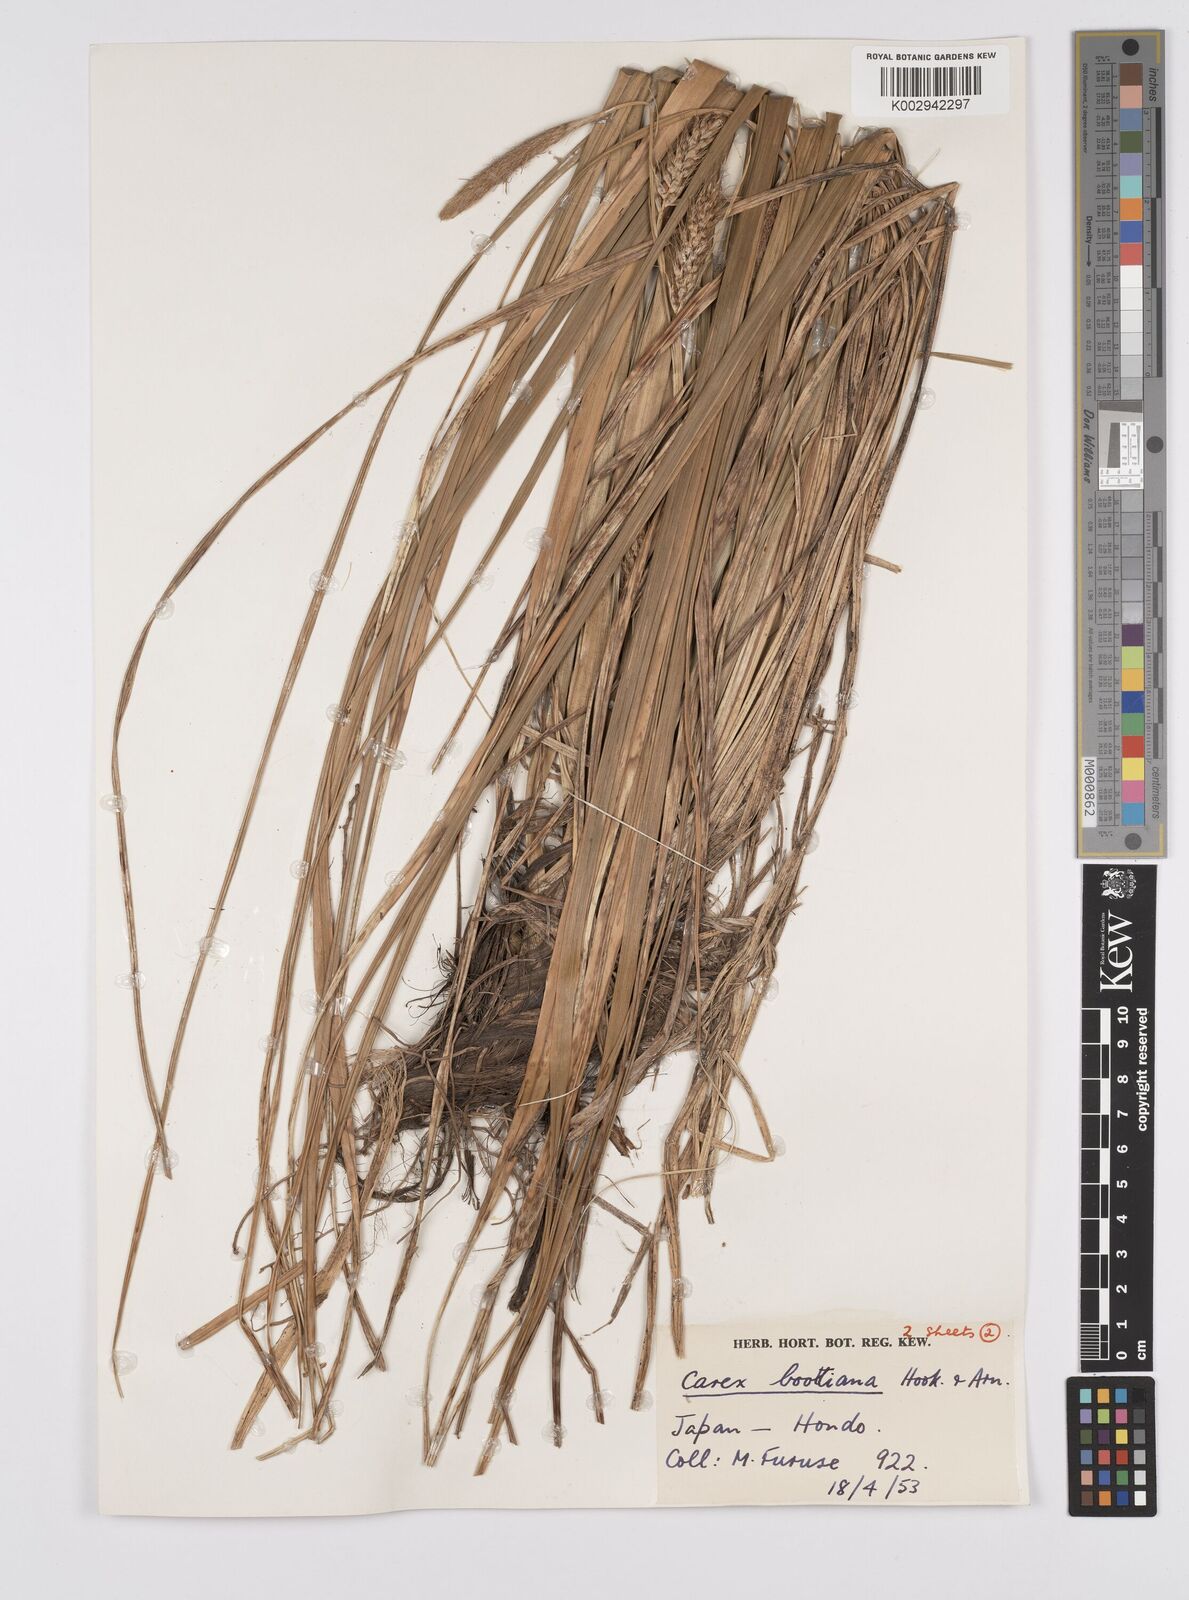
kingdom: Plantae
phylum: Tracheophyta
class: Liliopsida
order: Poales
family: Cyperaceae
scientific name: Cyperaceae
